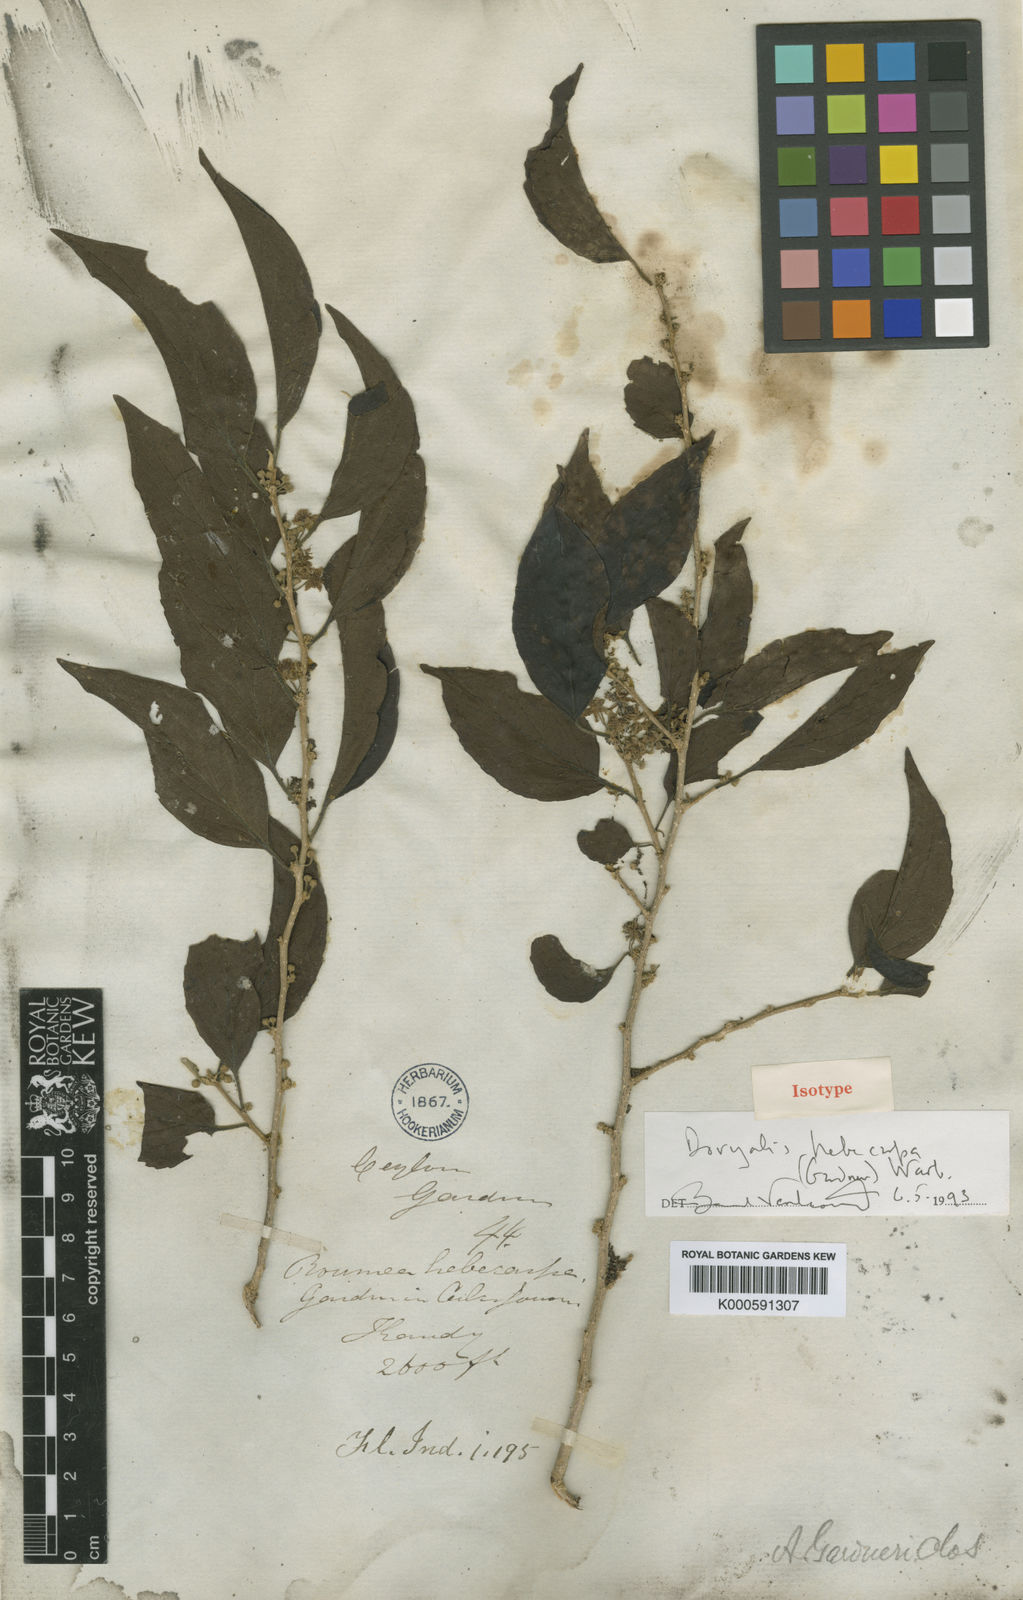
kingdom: Plantae
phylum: Tracheophyta
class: Magnoliopsida
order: Malpighiales
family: Salicaceae
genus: Dovyalis
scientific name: Dovyalis hebecarpa
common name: Ceylon gooseberry
